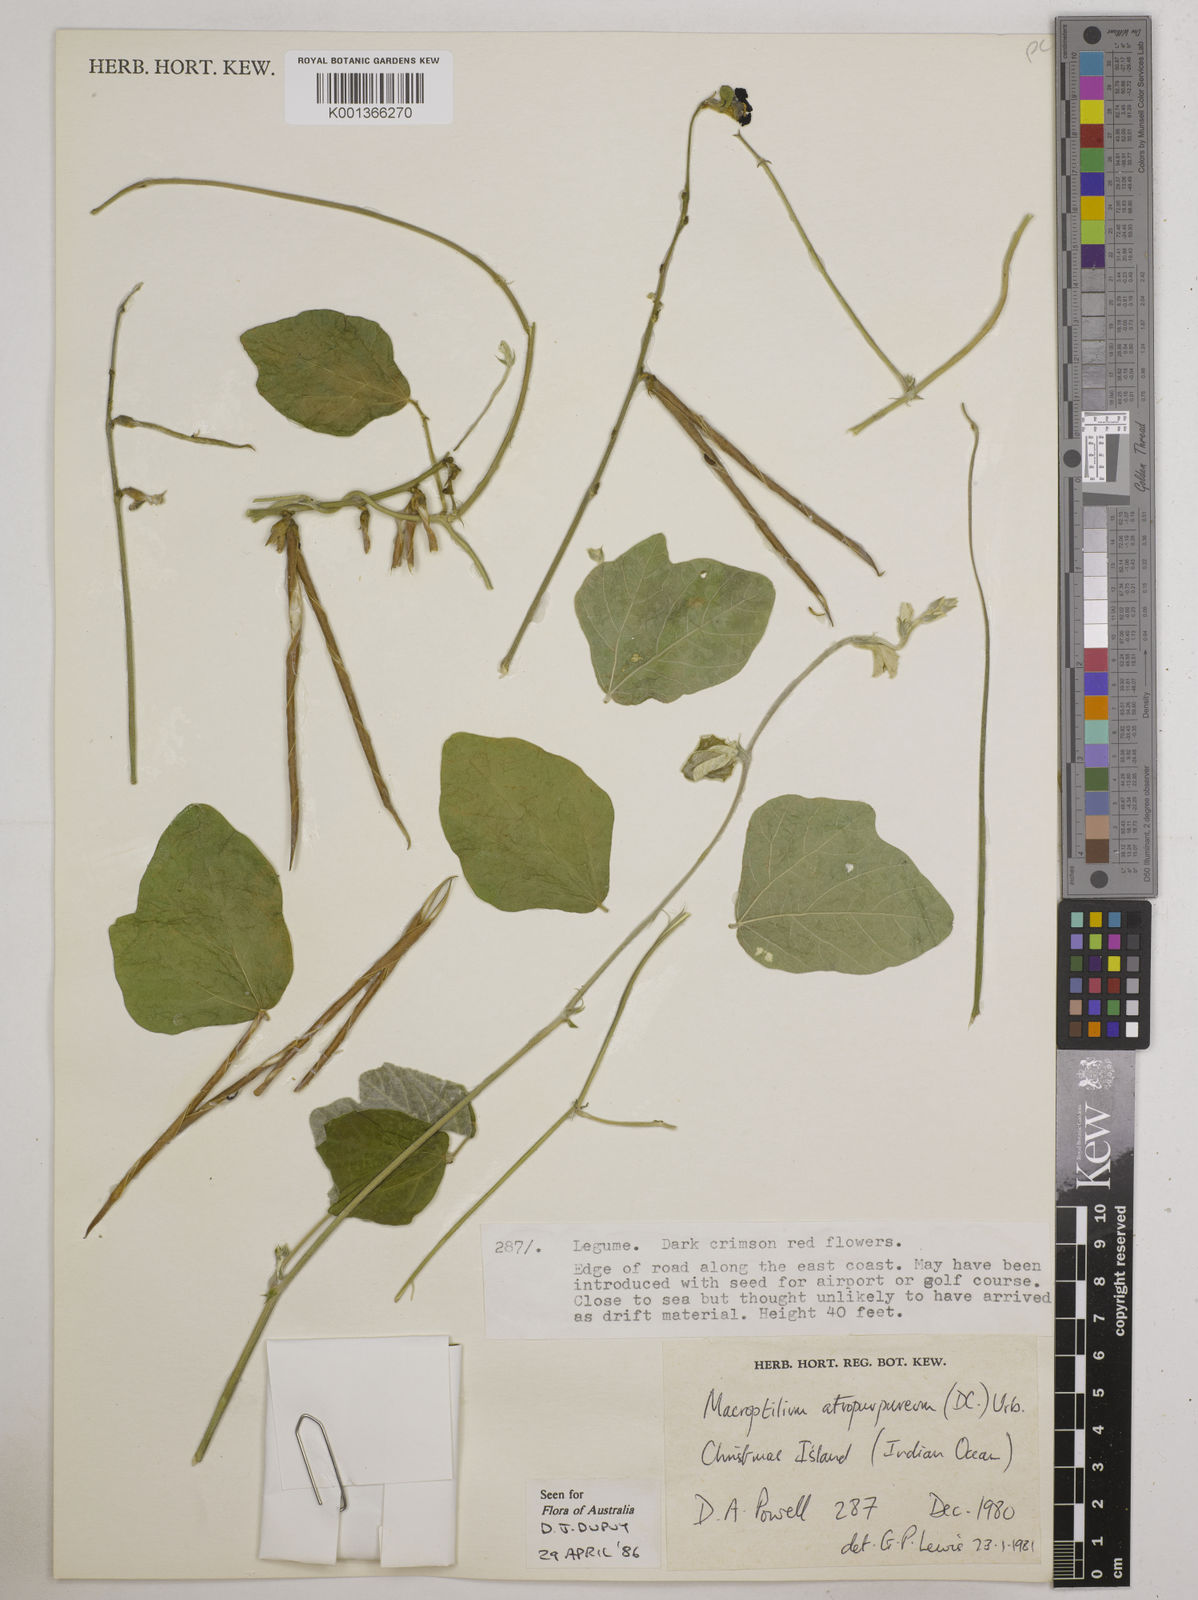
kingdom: Plantae
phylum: Tracheophyta
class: Magnoliopsida
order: Fabales
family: Fabaceae
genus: Macroptilium
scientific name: Macroptilium atropurpureum
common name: Purple bushbean
